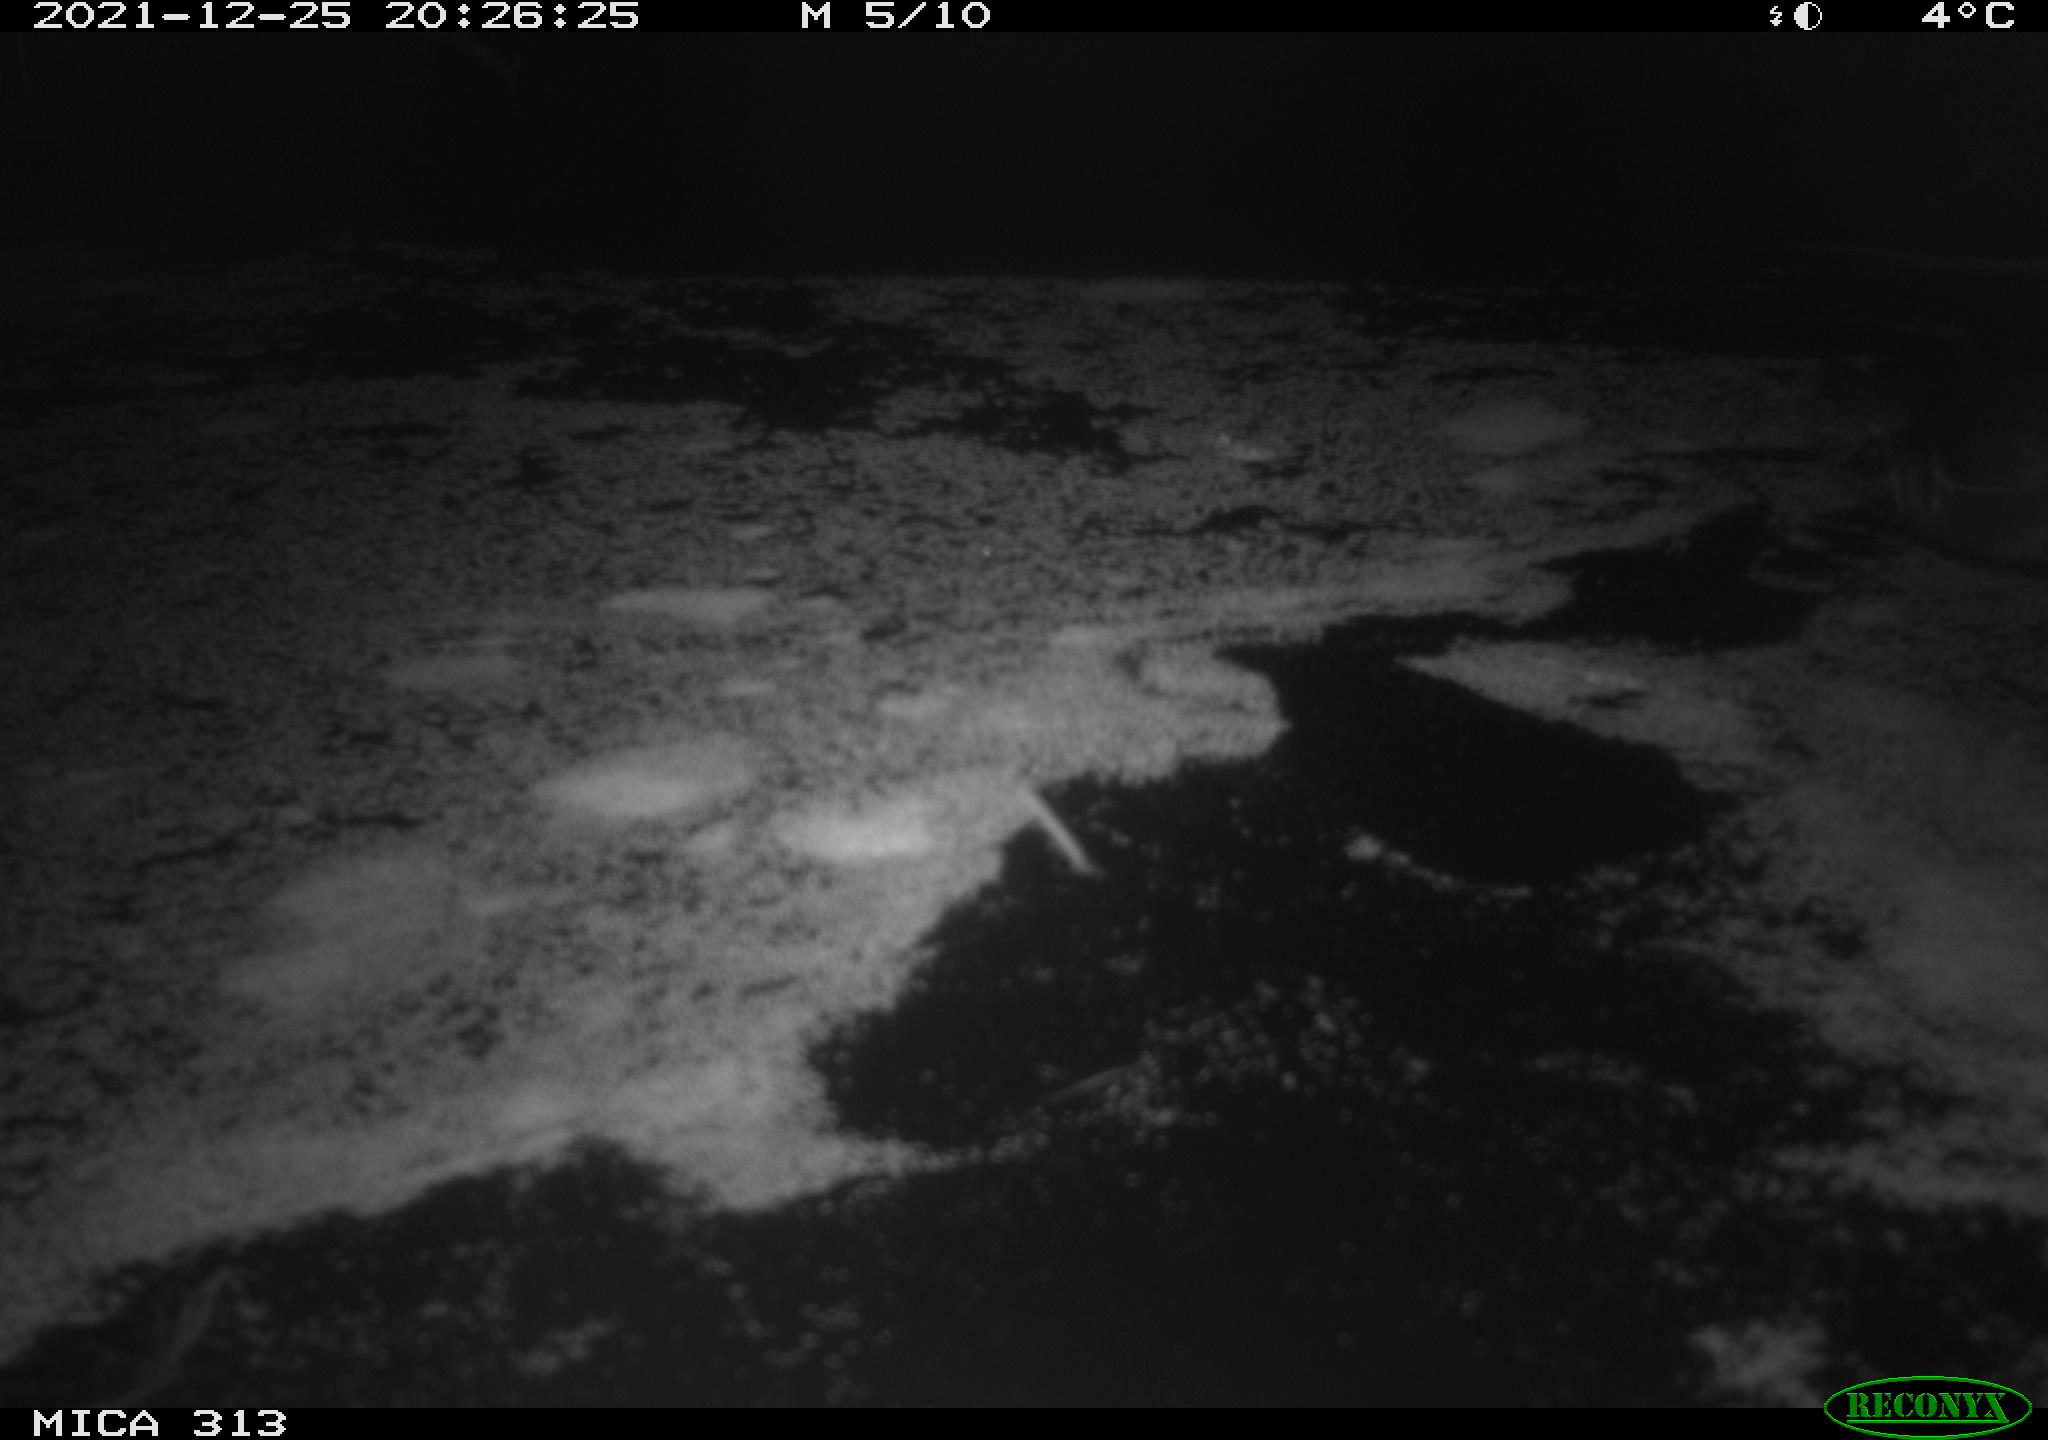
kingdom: Animalia
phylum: Chordata
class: Aves
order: Gruiformes
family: Rallidae
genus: Gallinula
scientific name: Gallinula chloropus
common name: Common moorhen
